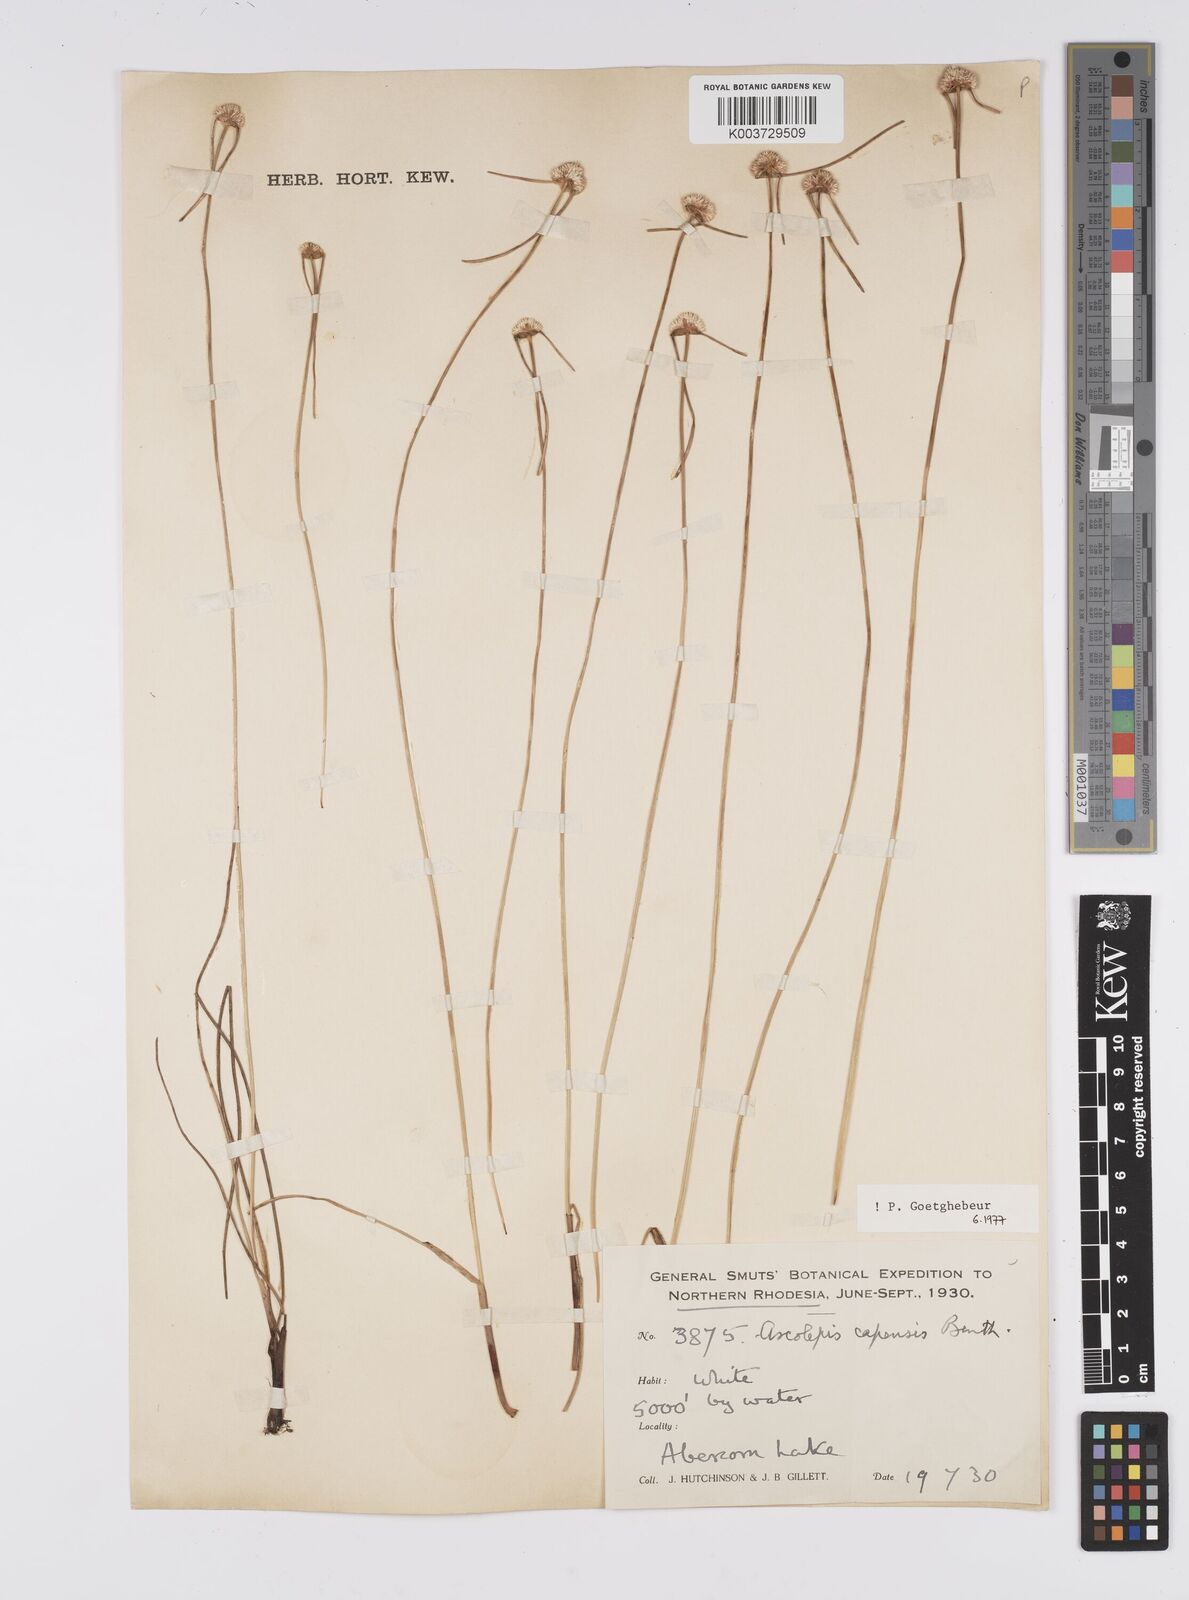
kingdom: Plantae
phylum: Tracheophyta
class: Liliopsida
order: Poales
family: Cyperaceae
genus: Cyperus
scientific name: Cyperus
